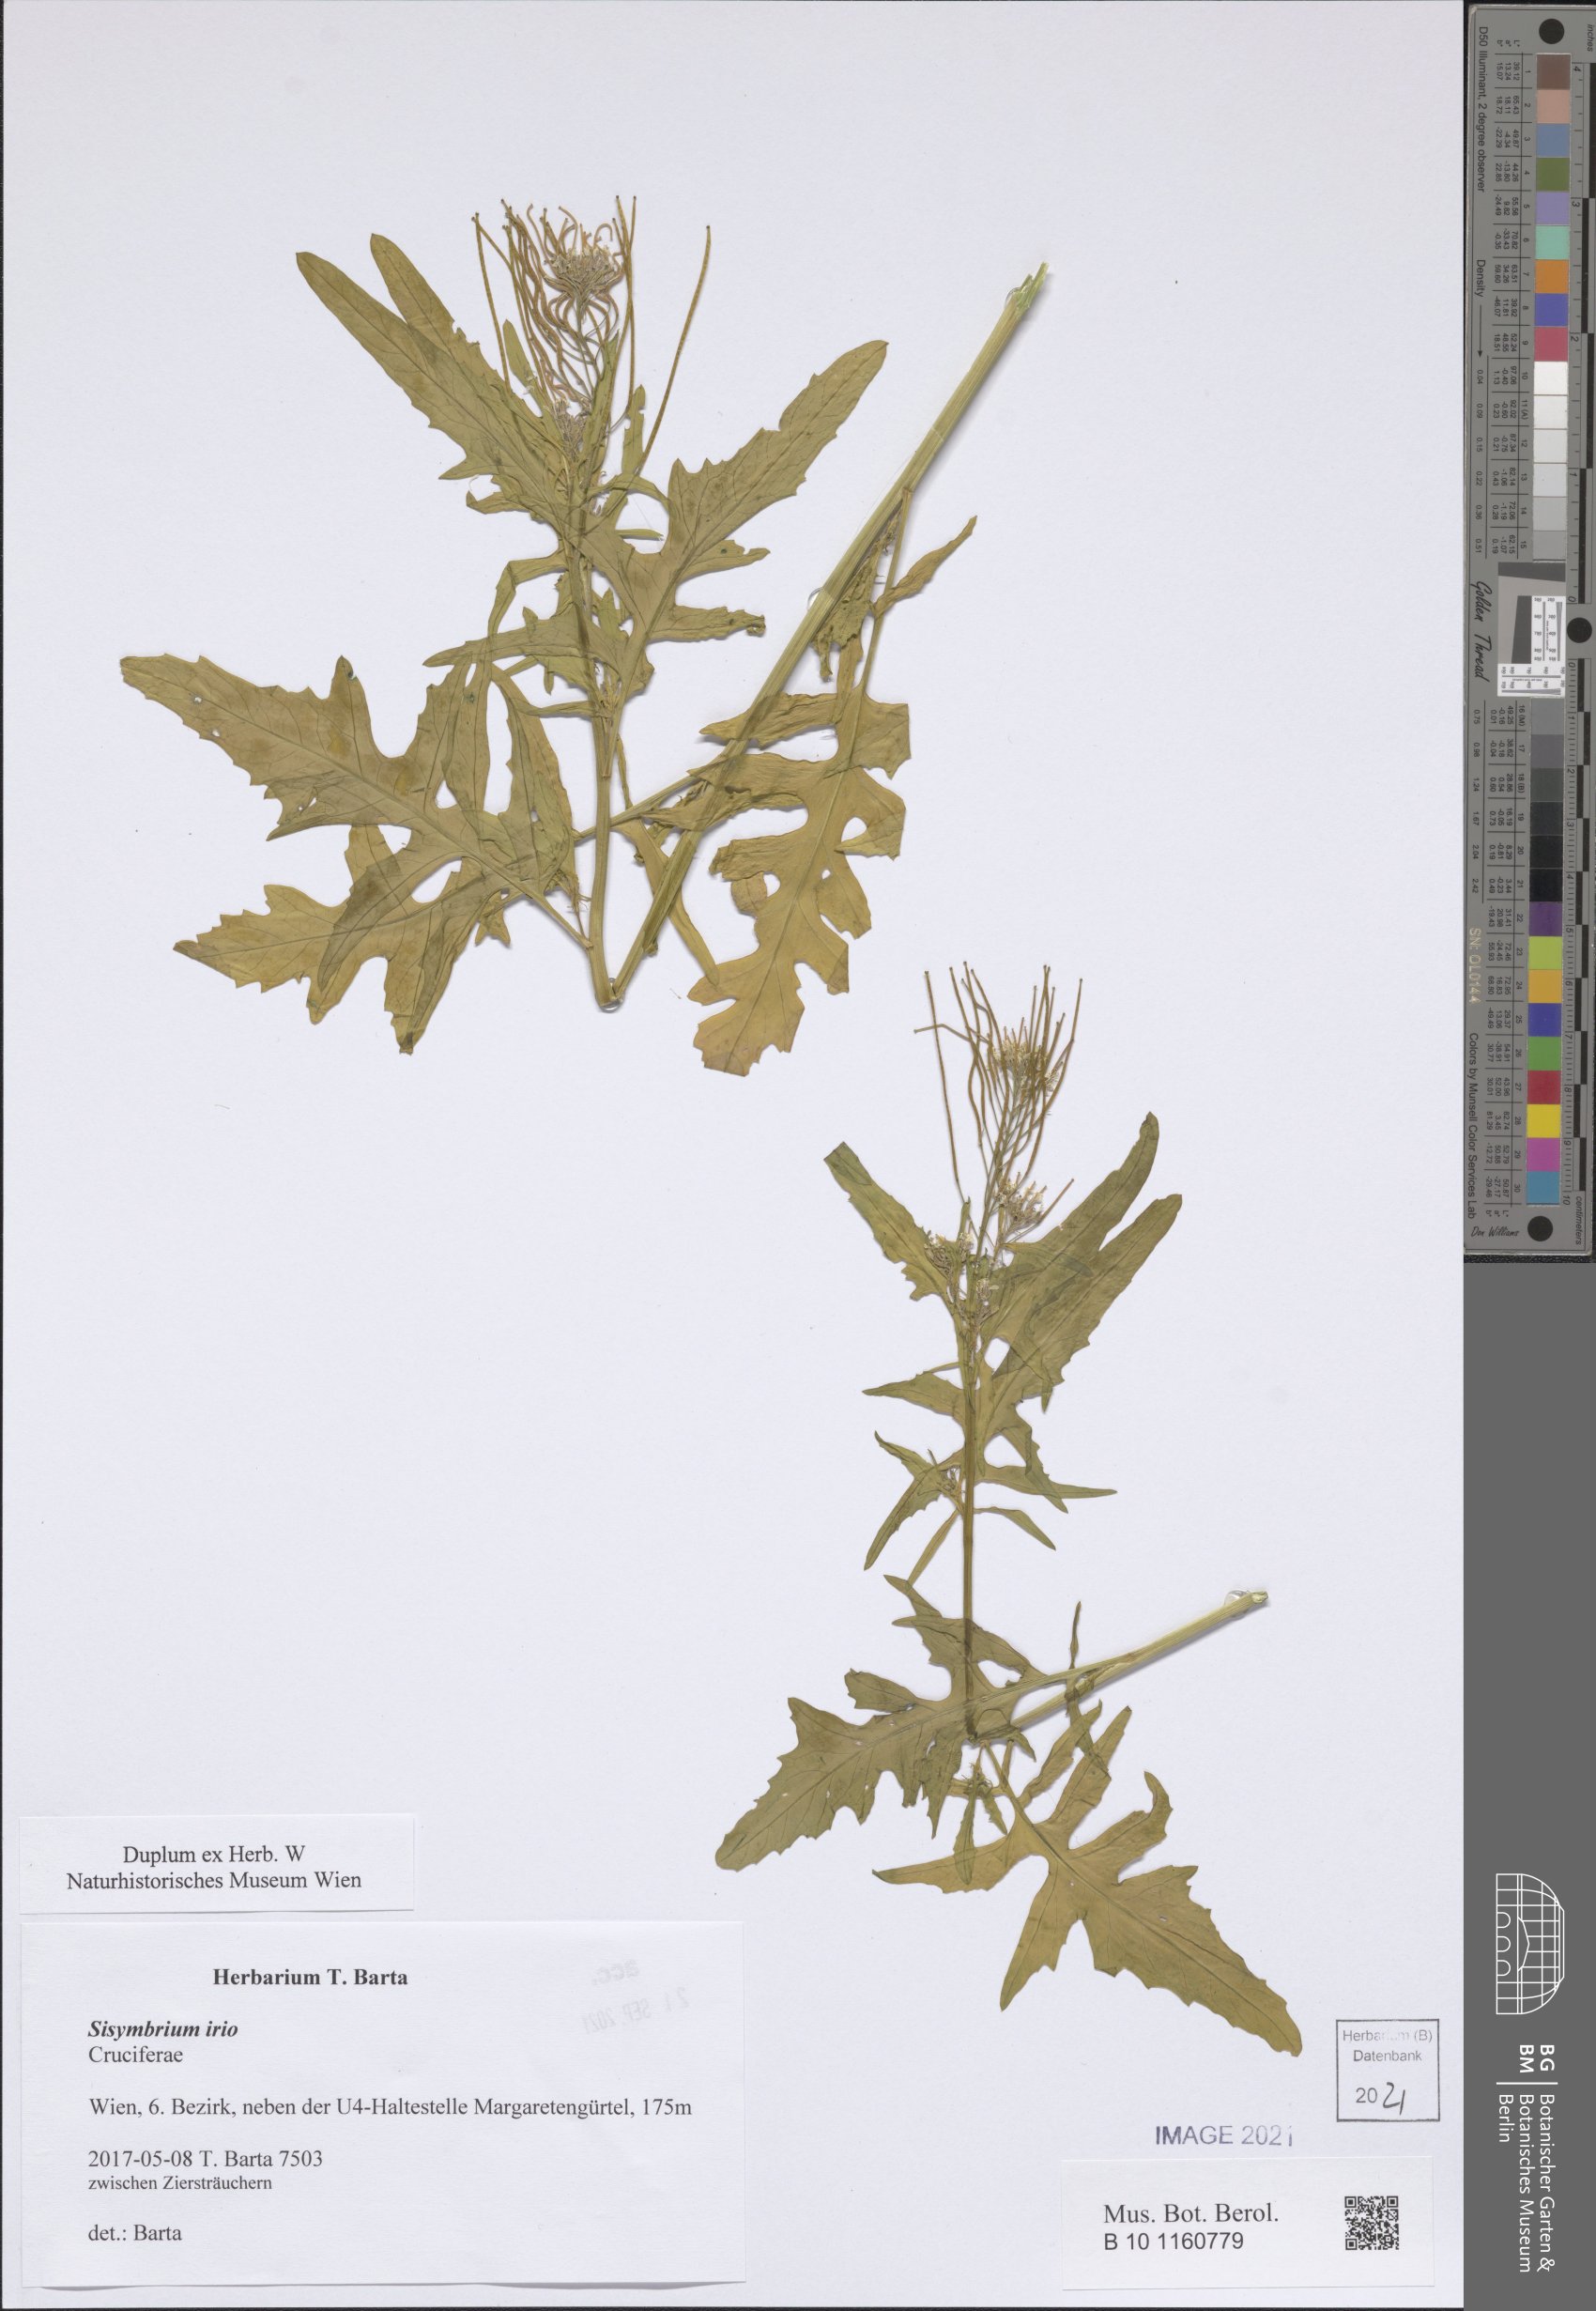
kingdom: Plantae
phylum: Tracheophyta
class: Magnoliopsida
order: Brassicales
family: Brassicaceae
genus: Sisymbrium
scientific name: Sisymbrium irio
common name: London rocket
